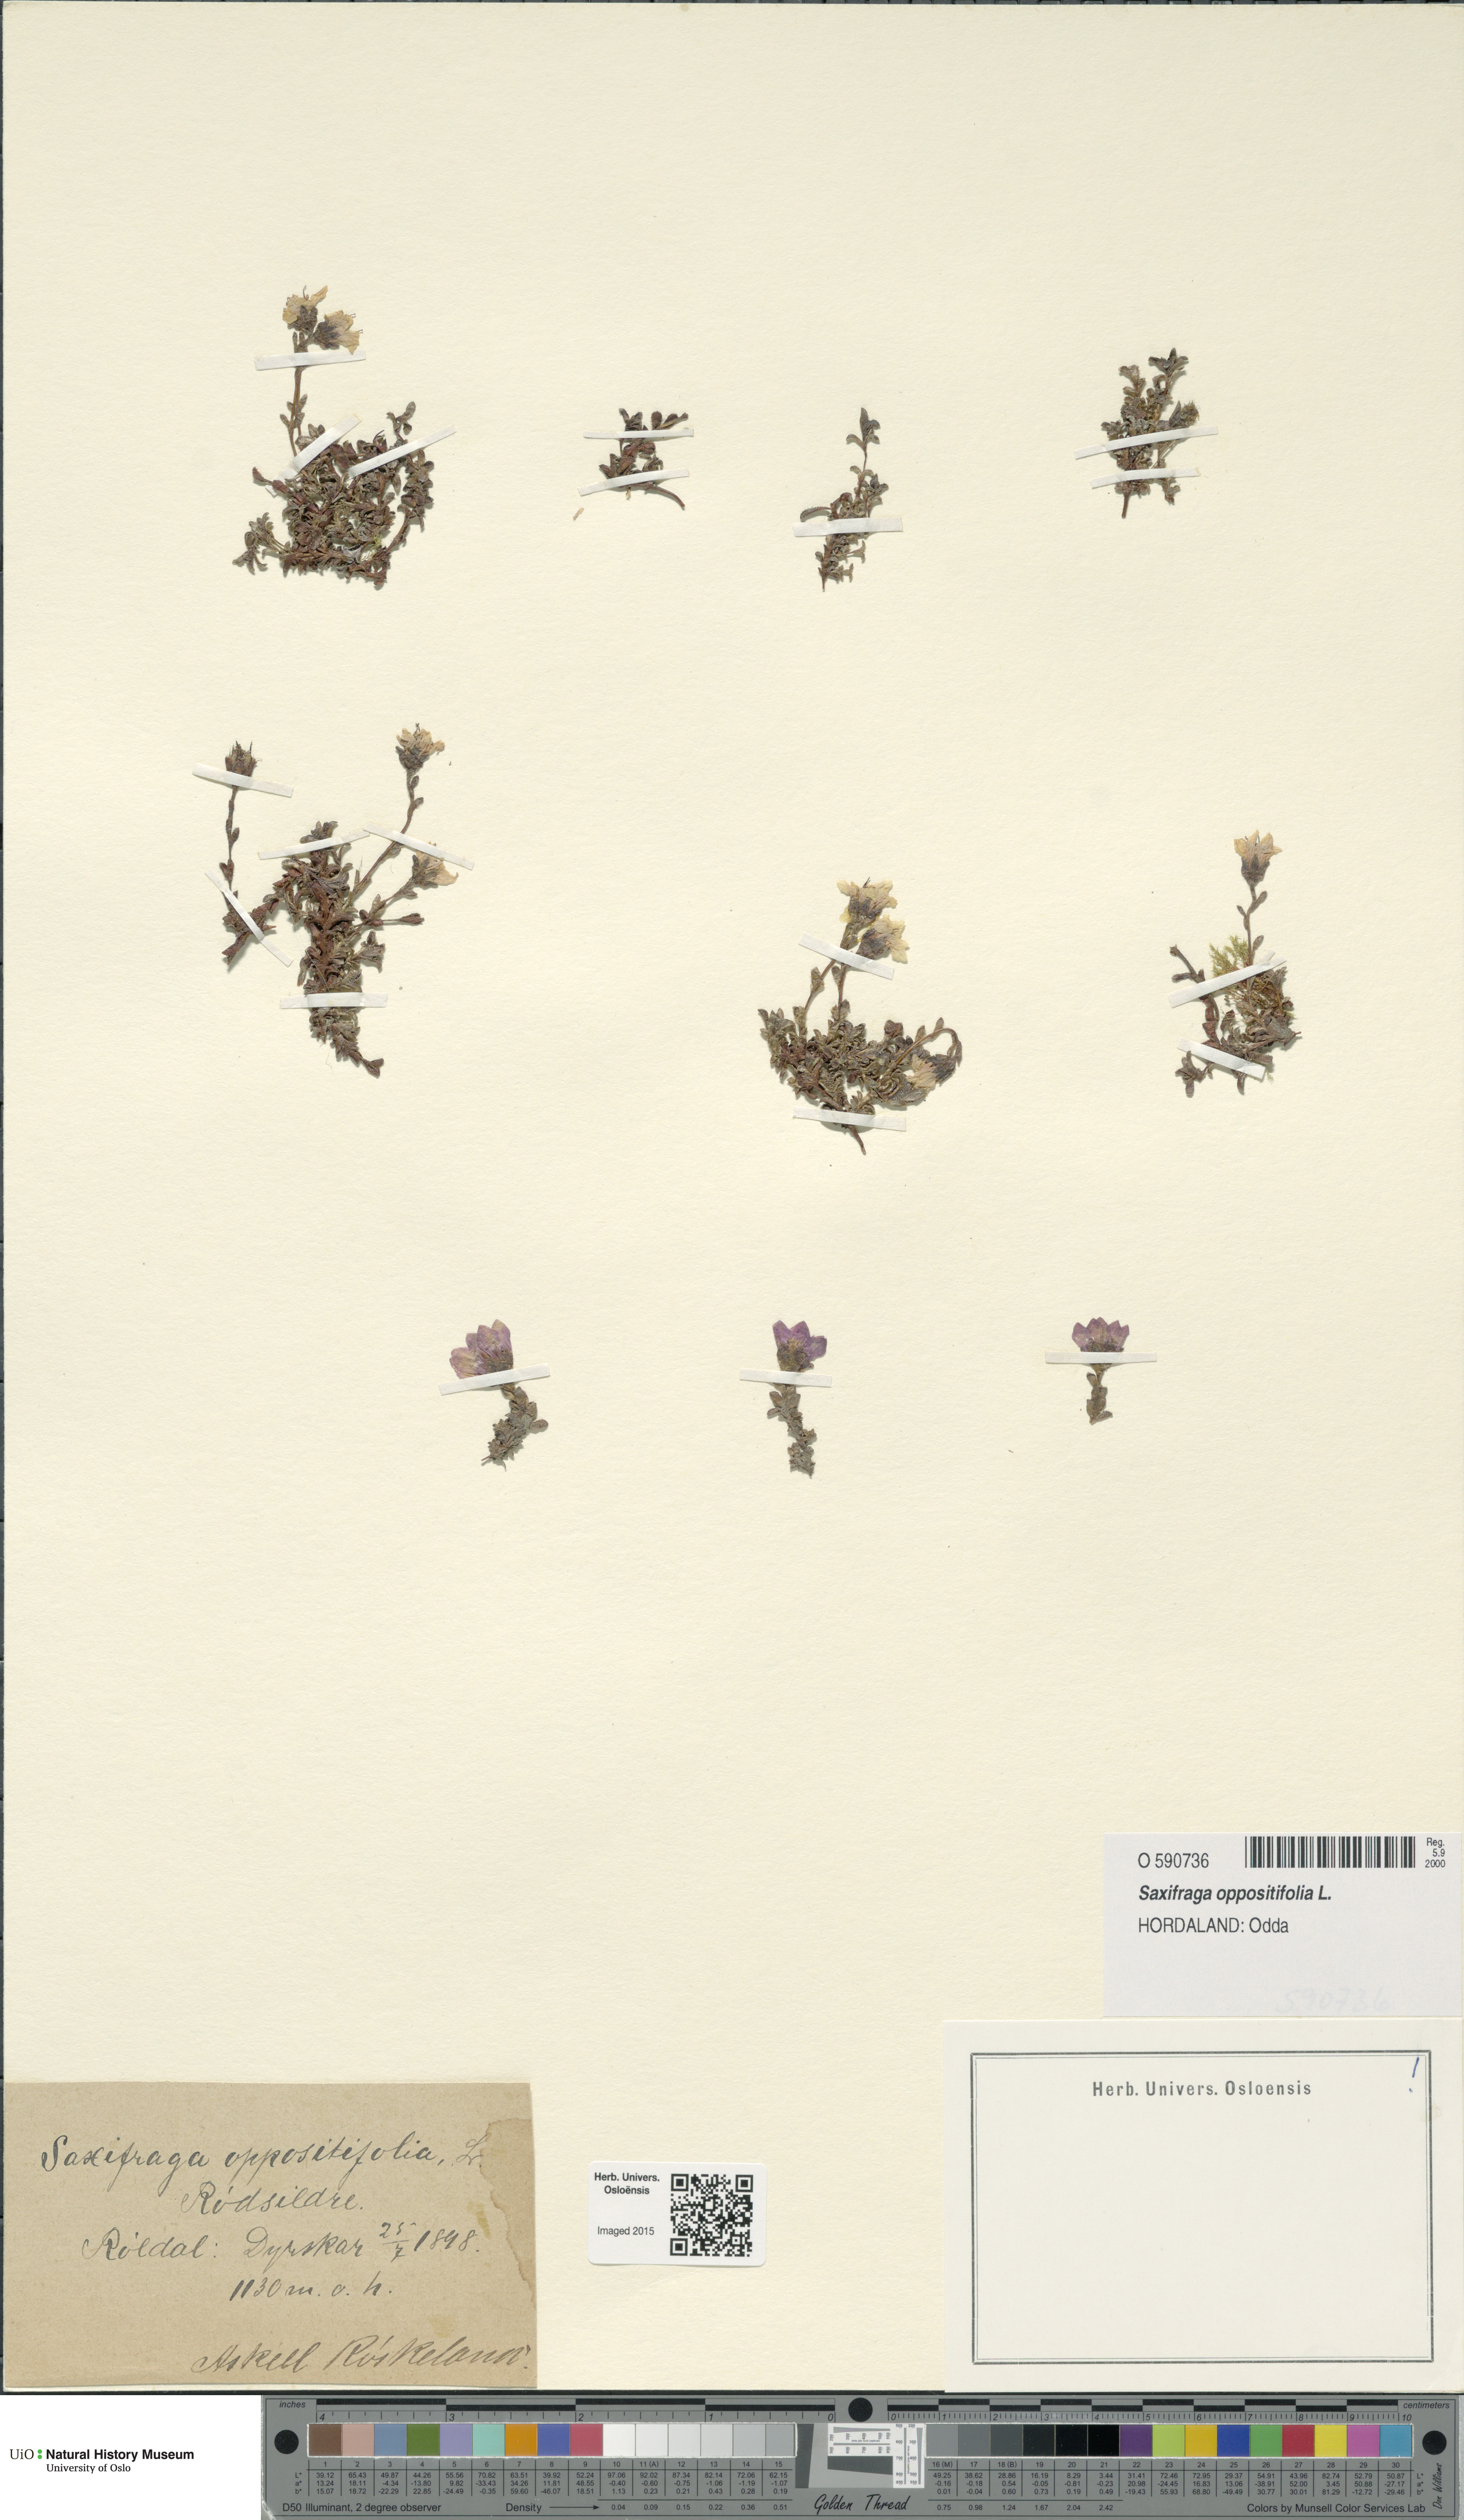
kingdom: Plantae
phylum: Tracheophyta
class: Magnoliopsida
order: Saxifragales
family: Saxifragaceae
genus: Saxifraga
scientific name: Saxifraga oppositifolia
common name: Purple saxifrage
